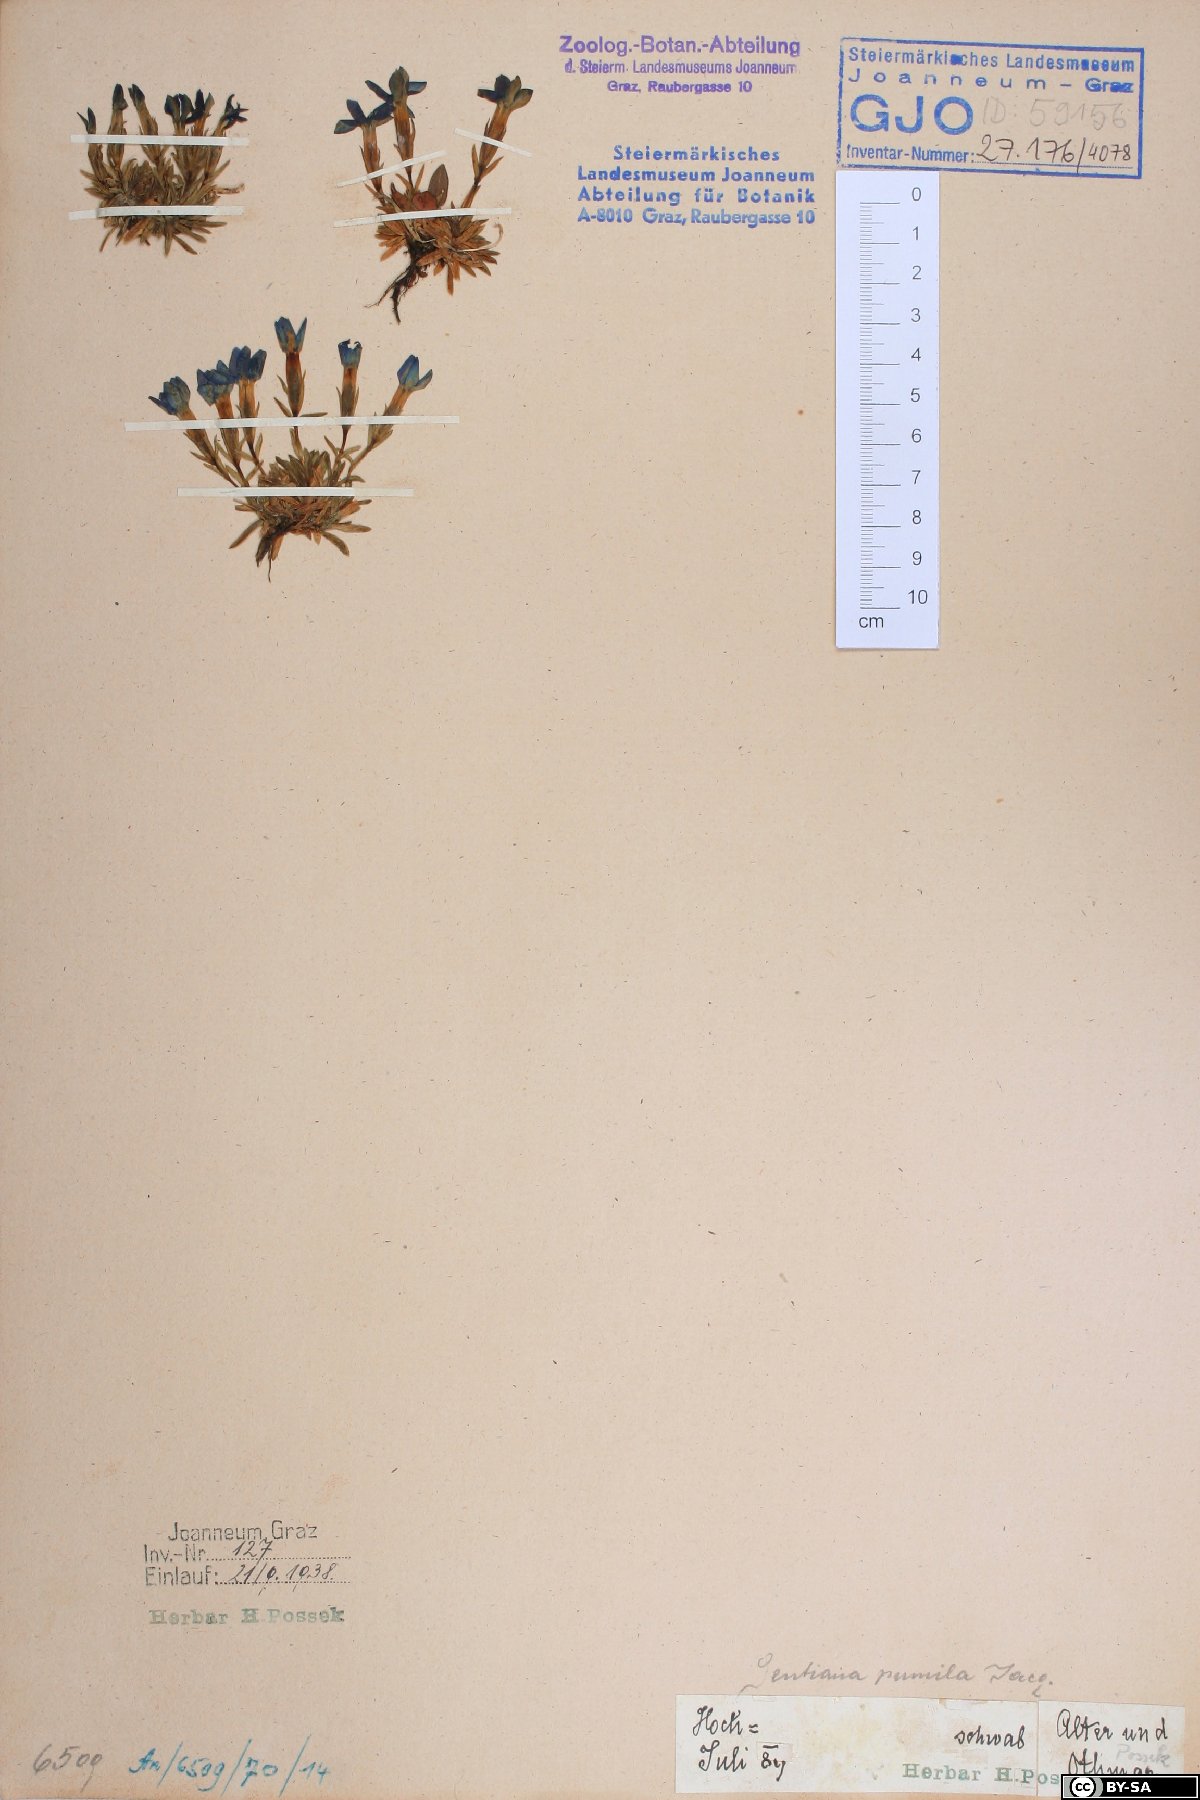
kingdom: Plantae
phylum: Tracheophyta
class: Magnoliopsida
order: Gentianales
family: Gentianaceae
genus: Gentiana
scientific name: Gentiana pumila
